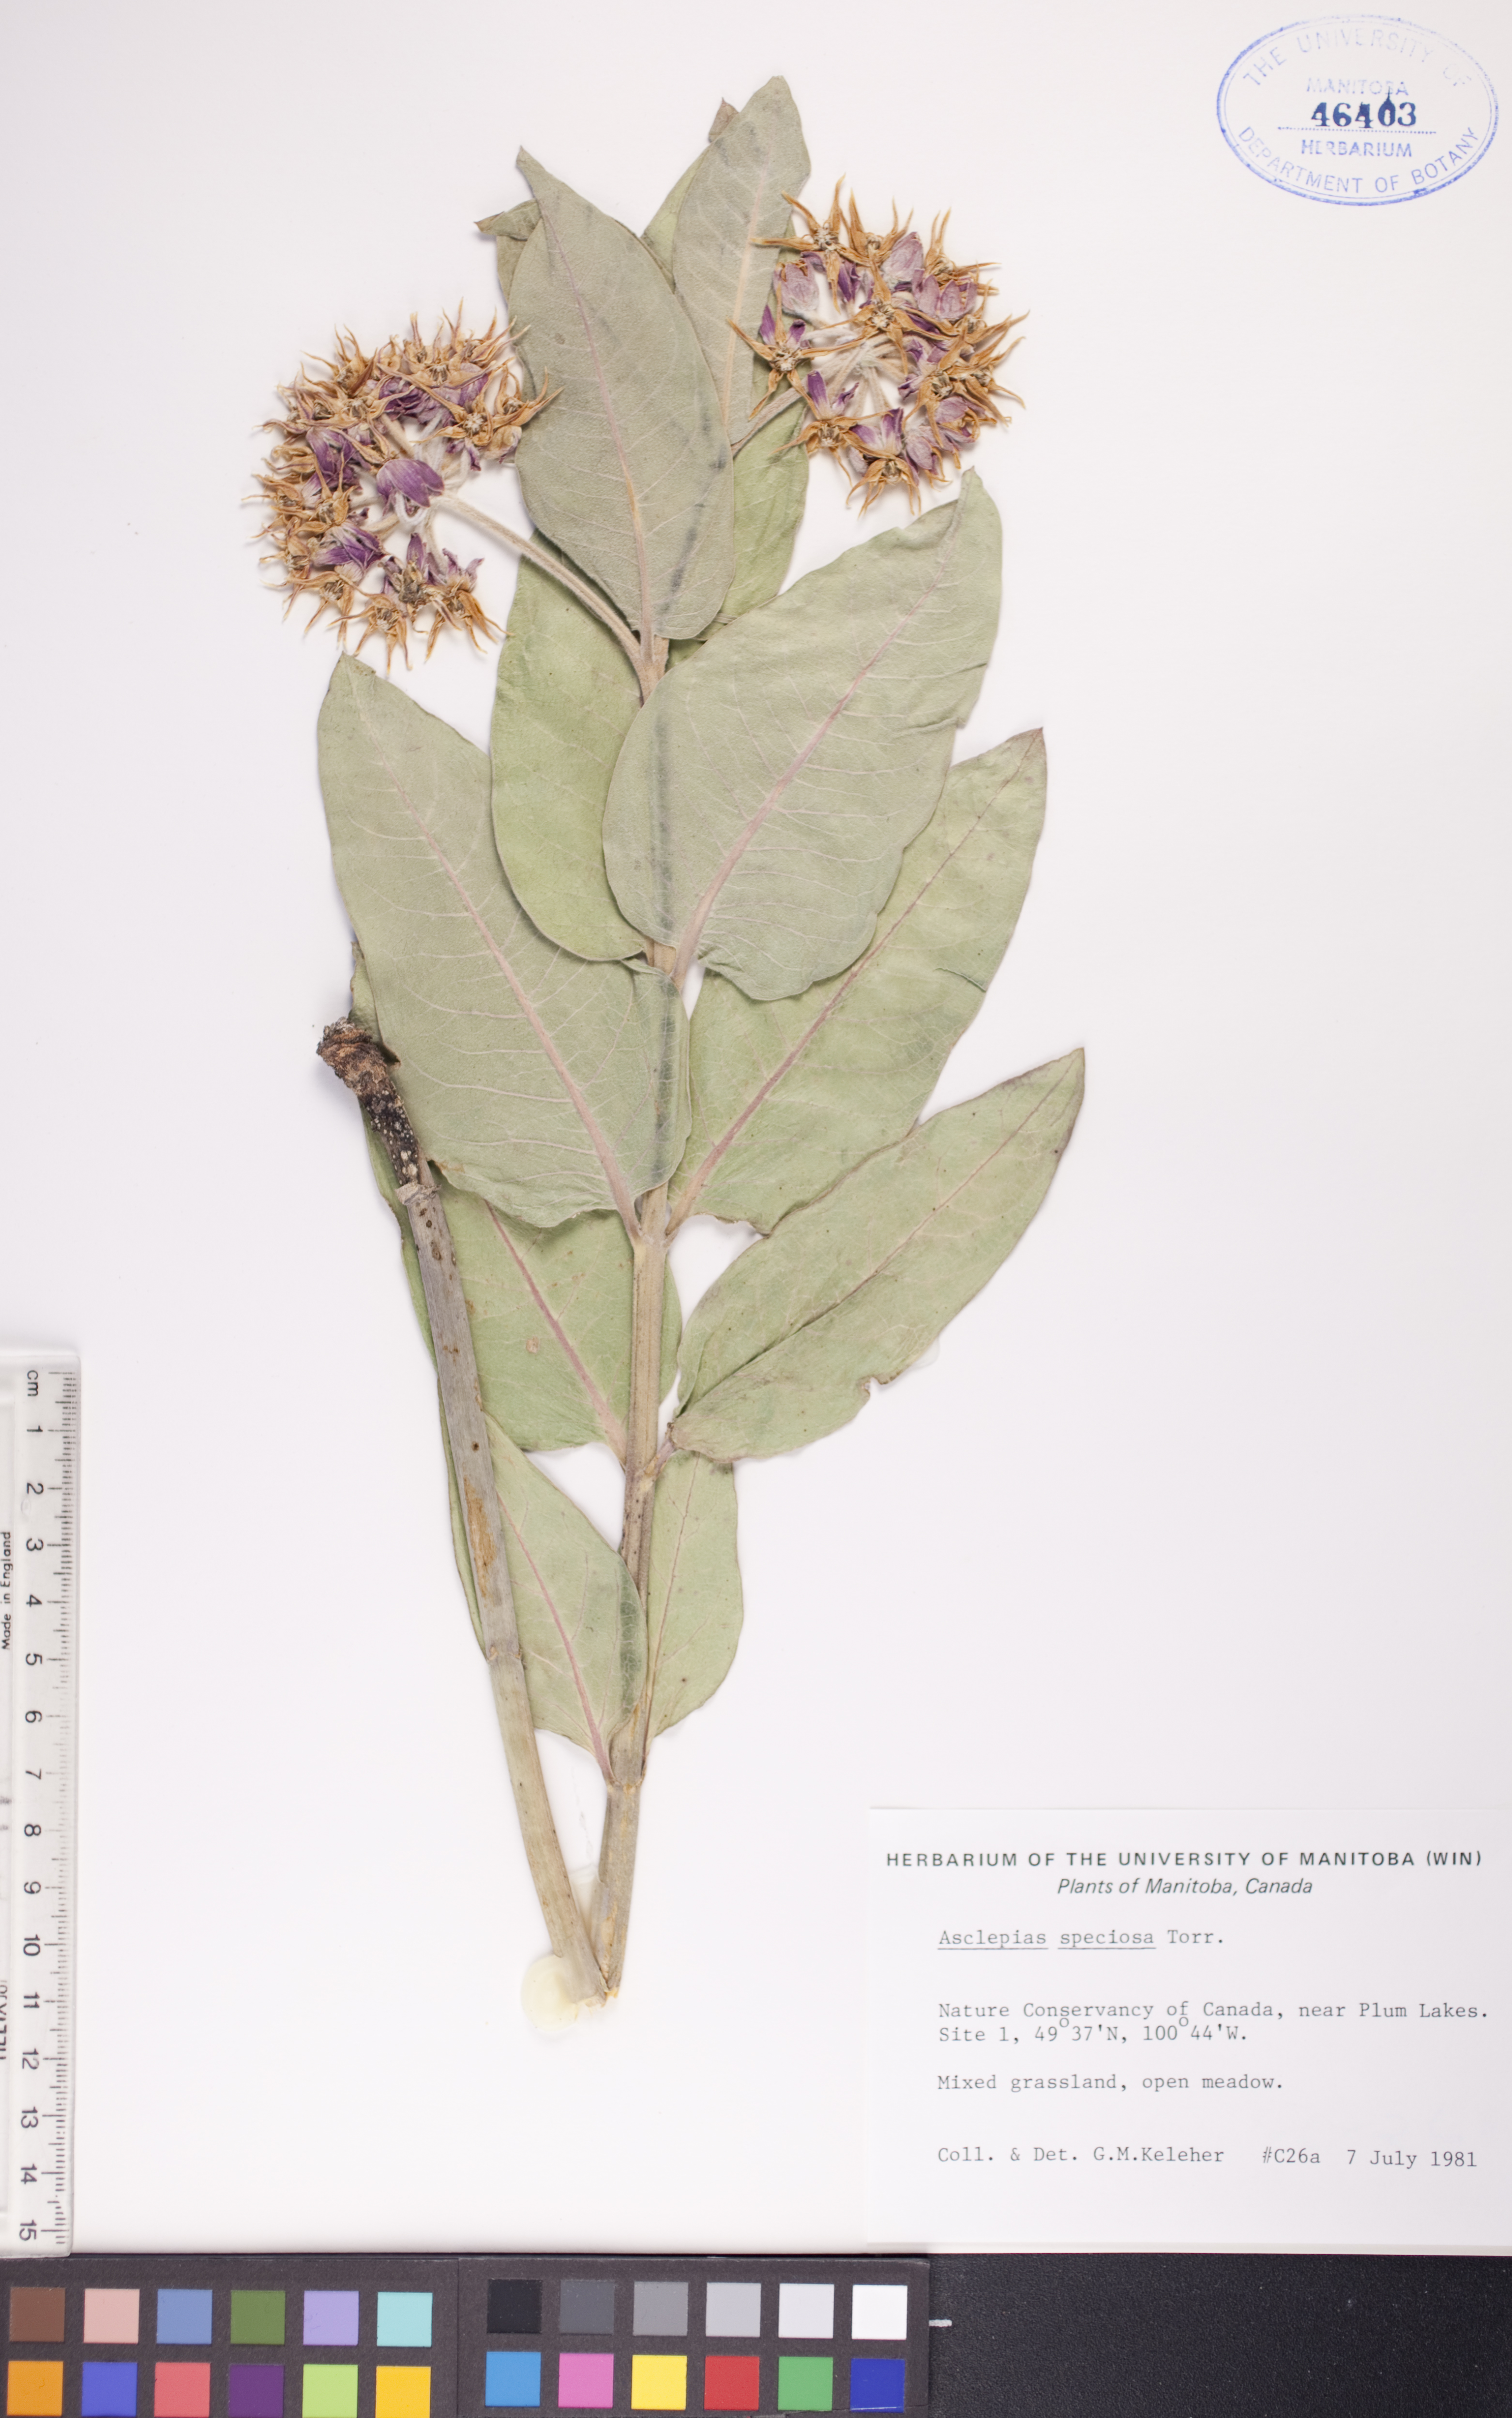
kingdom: Plantae
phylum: Tracheophyta
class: Magnoliopsida
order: Gentianales
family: Apocynaceae
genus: Asclepias
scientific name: Asclepias speciosa
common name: Showy milkweed
